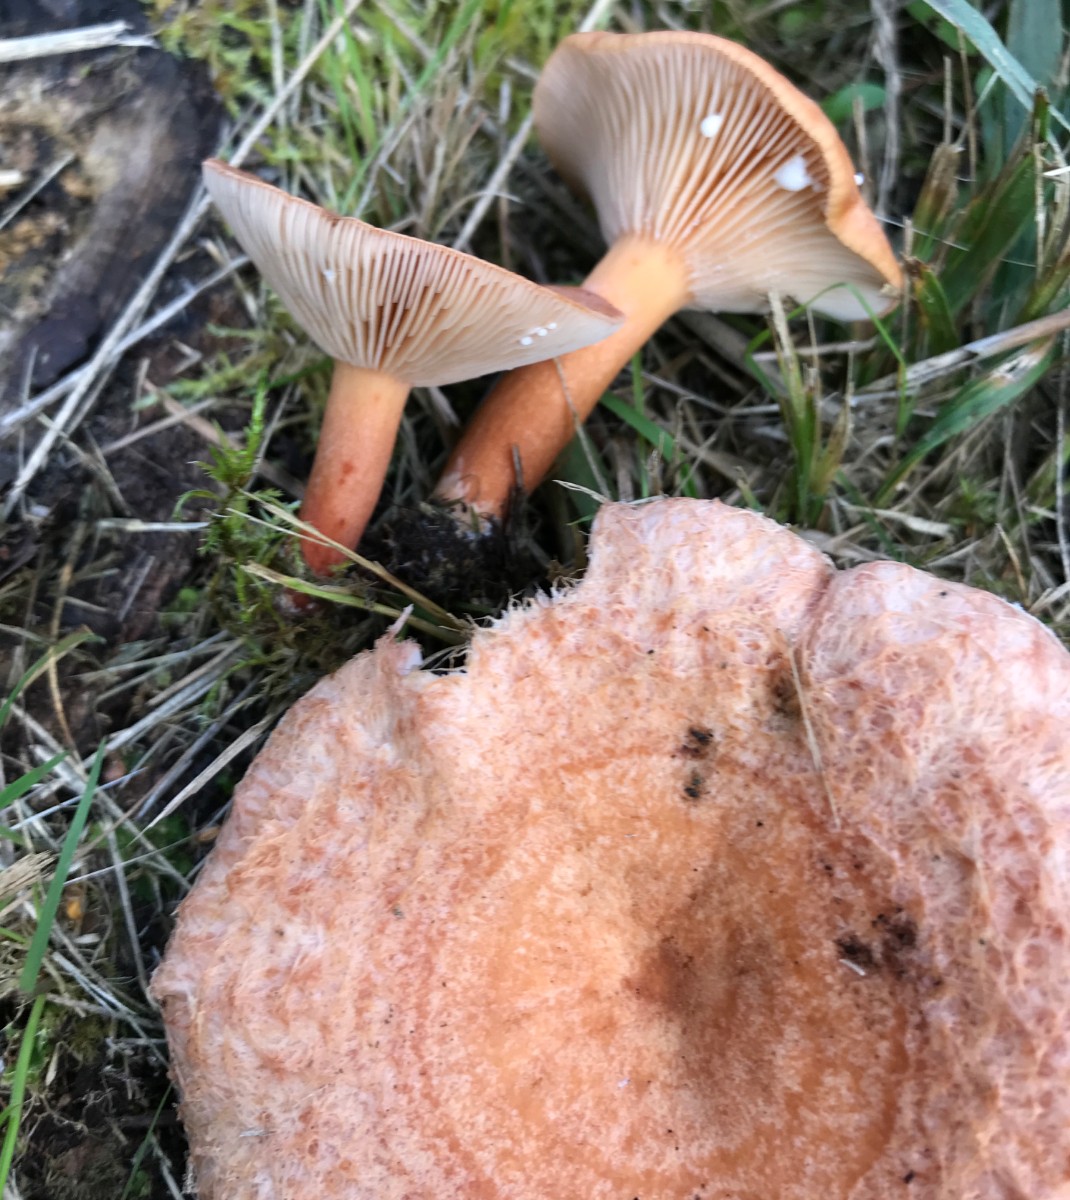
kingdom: Fungi
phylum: Basidiomycota
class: Agaricomycetes
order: Russulales
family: Russulaceae
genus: Lactarius
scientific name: Lactarius torminosus
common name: skægget mælkehat
